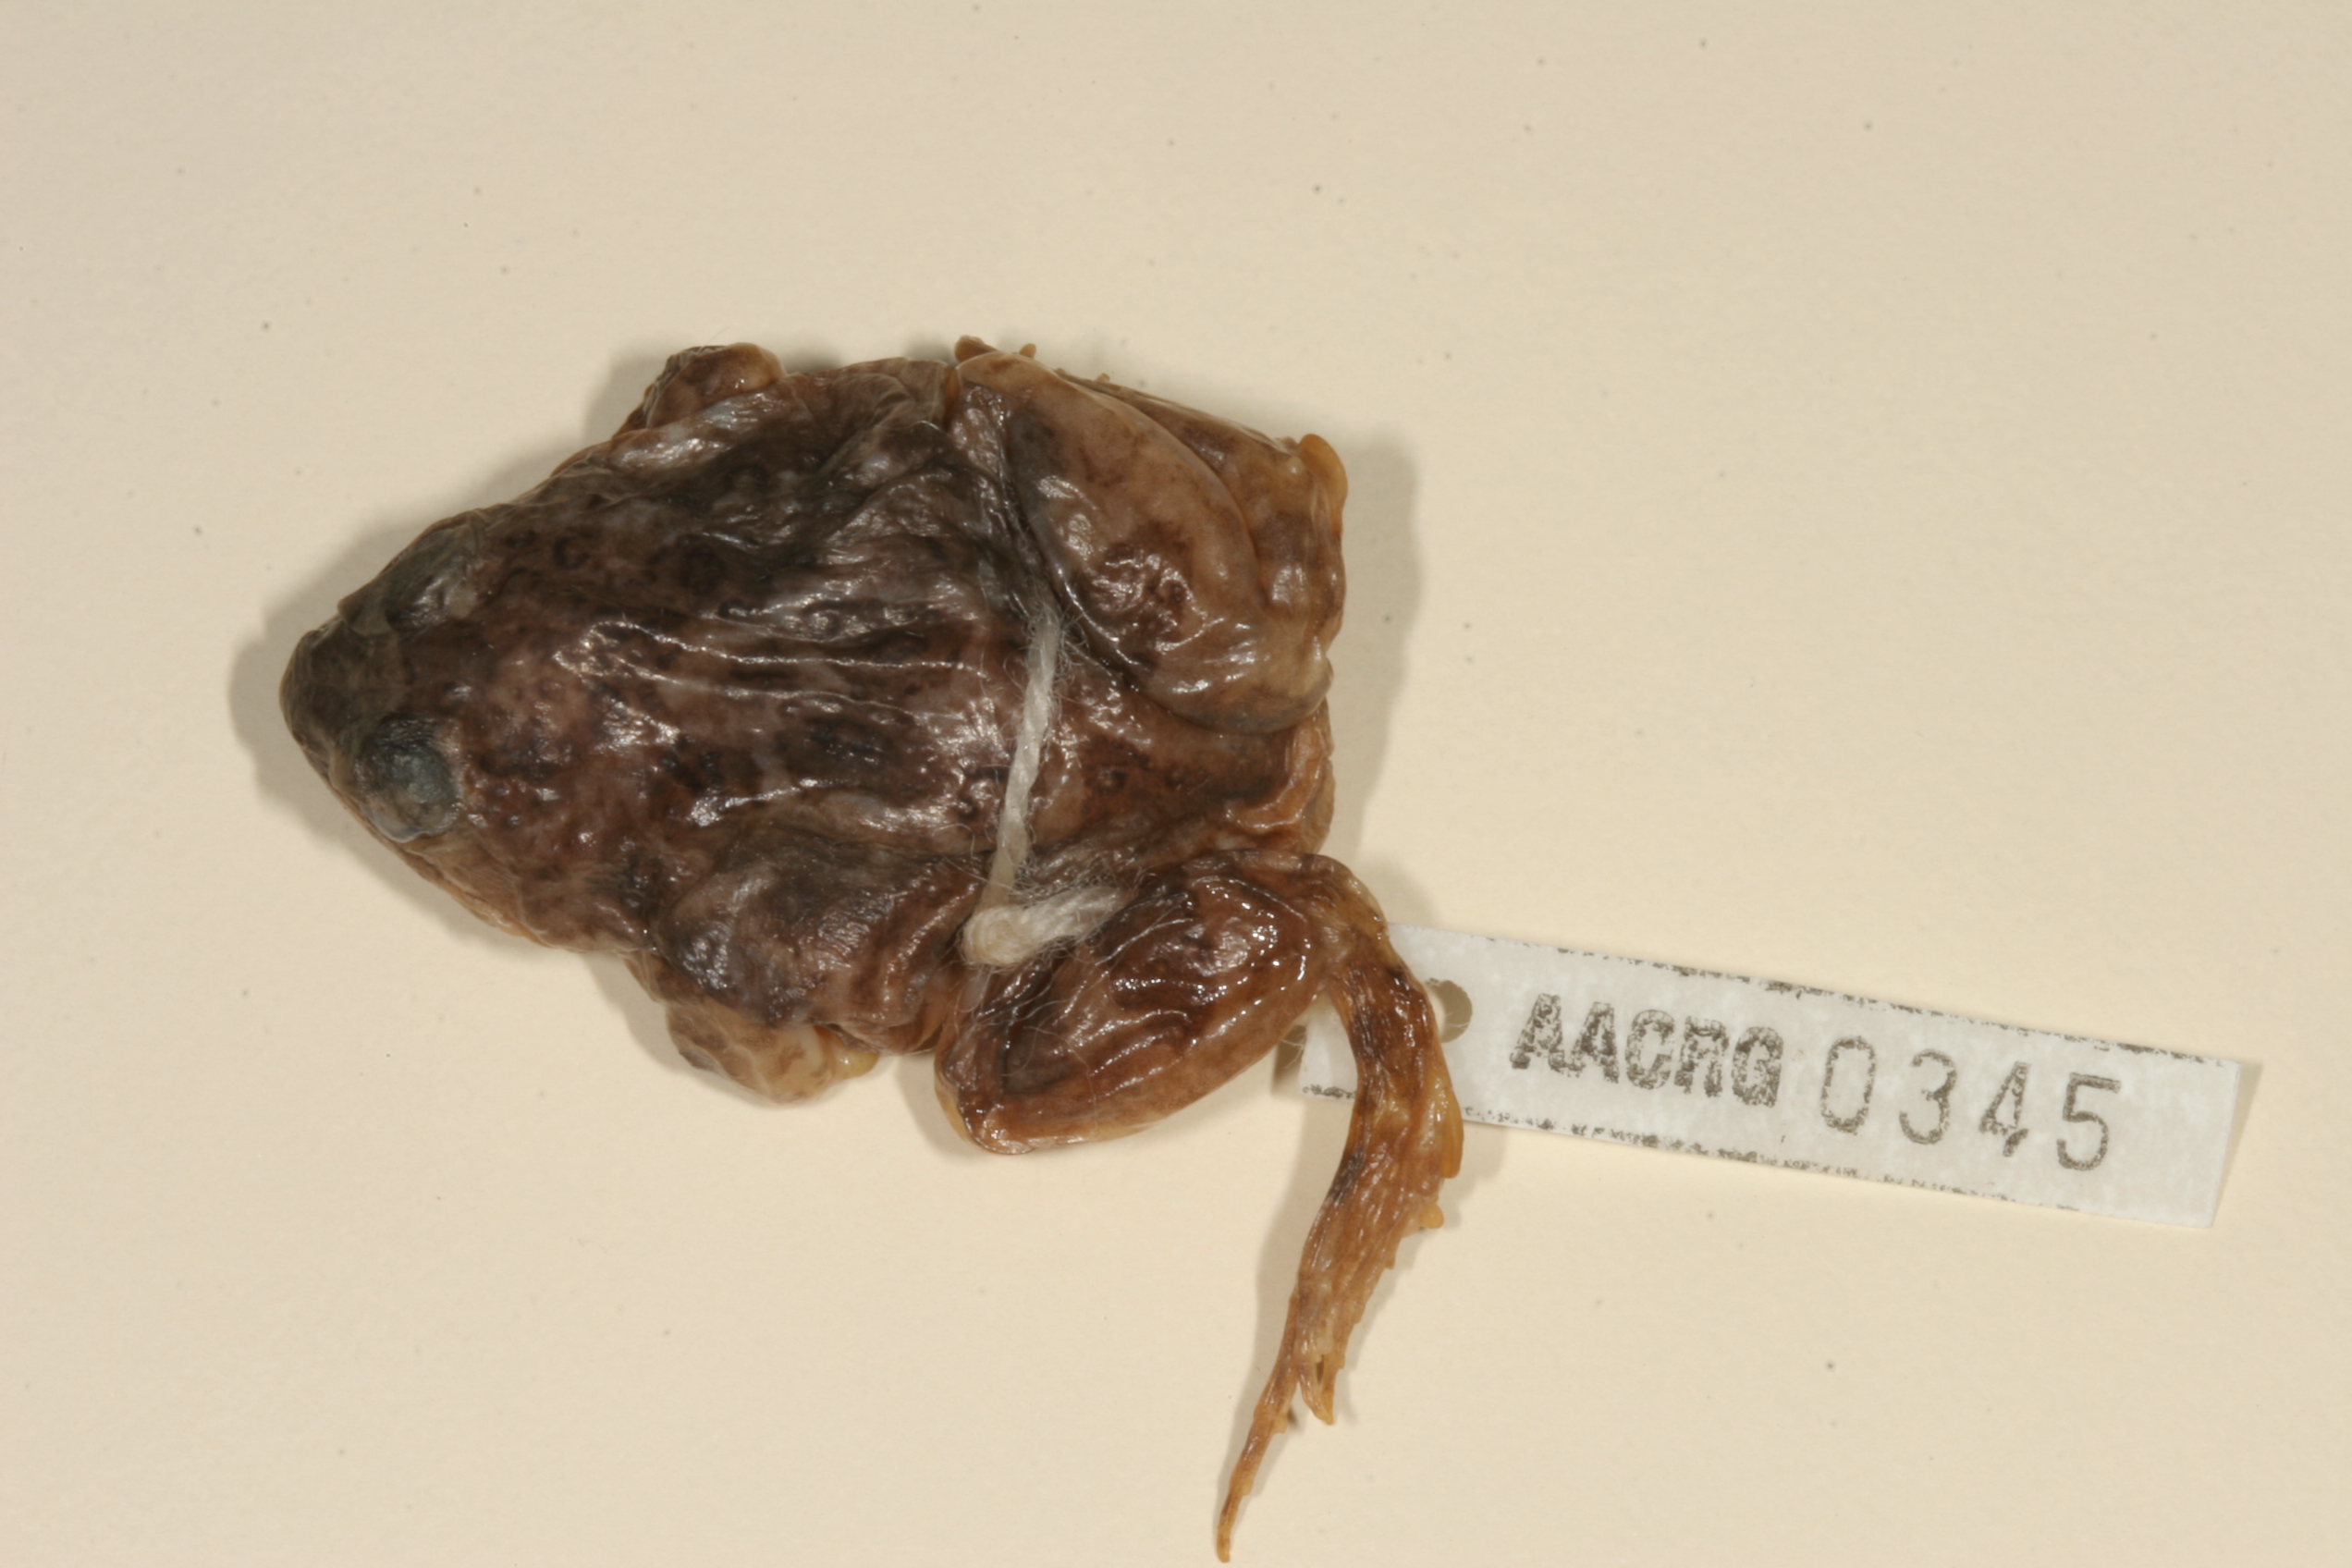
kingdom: Animalia
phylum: Chordata
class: Amphibia
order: Anura
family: Pyxicephalidae
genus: Tomopterna
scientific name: Tomopterna cryptotis
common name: Catequero bullfrog
